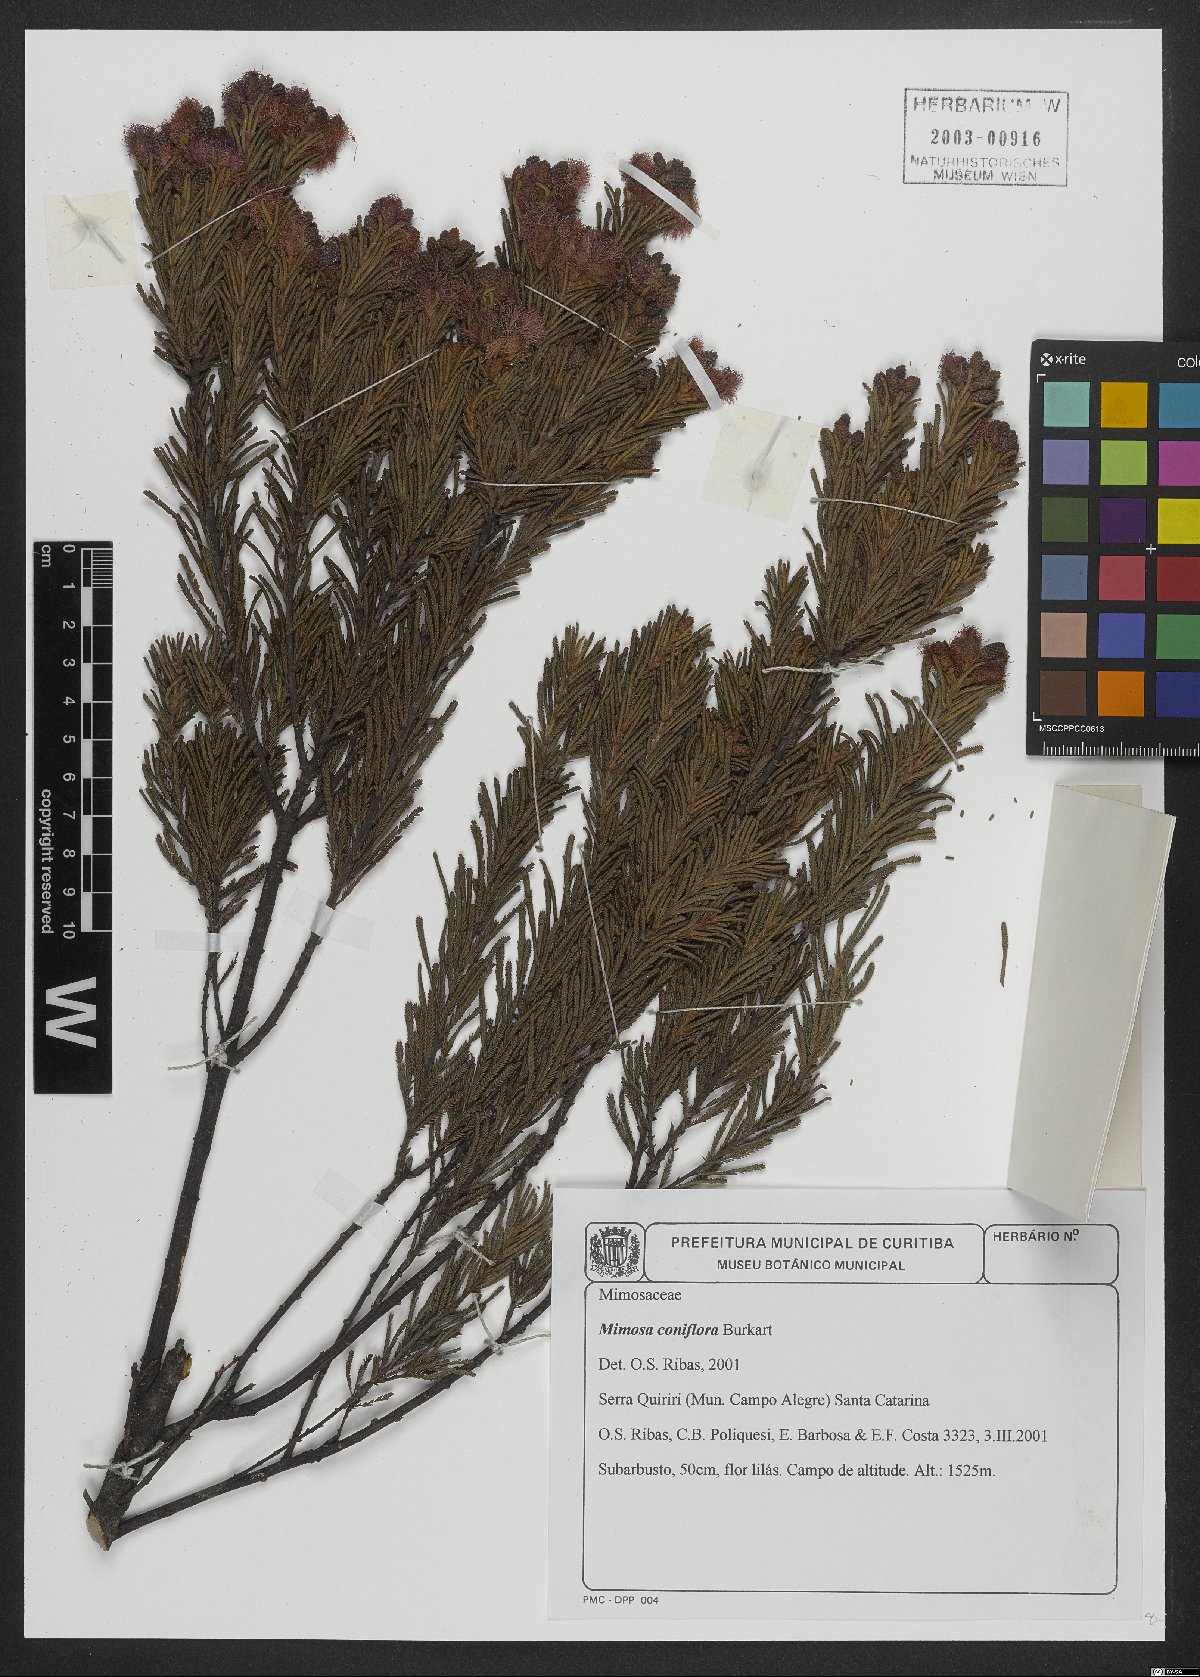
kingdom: Plantae
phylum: Tracheophyta
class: Magnoliopsida
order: Fabales
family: Fabaceae
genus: Mimosa
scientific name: Mimosa coniflora
